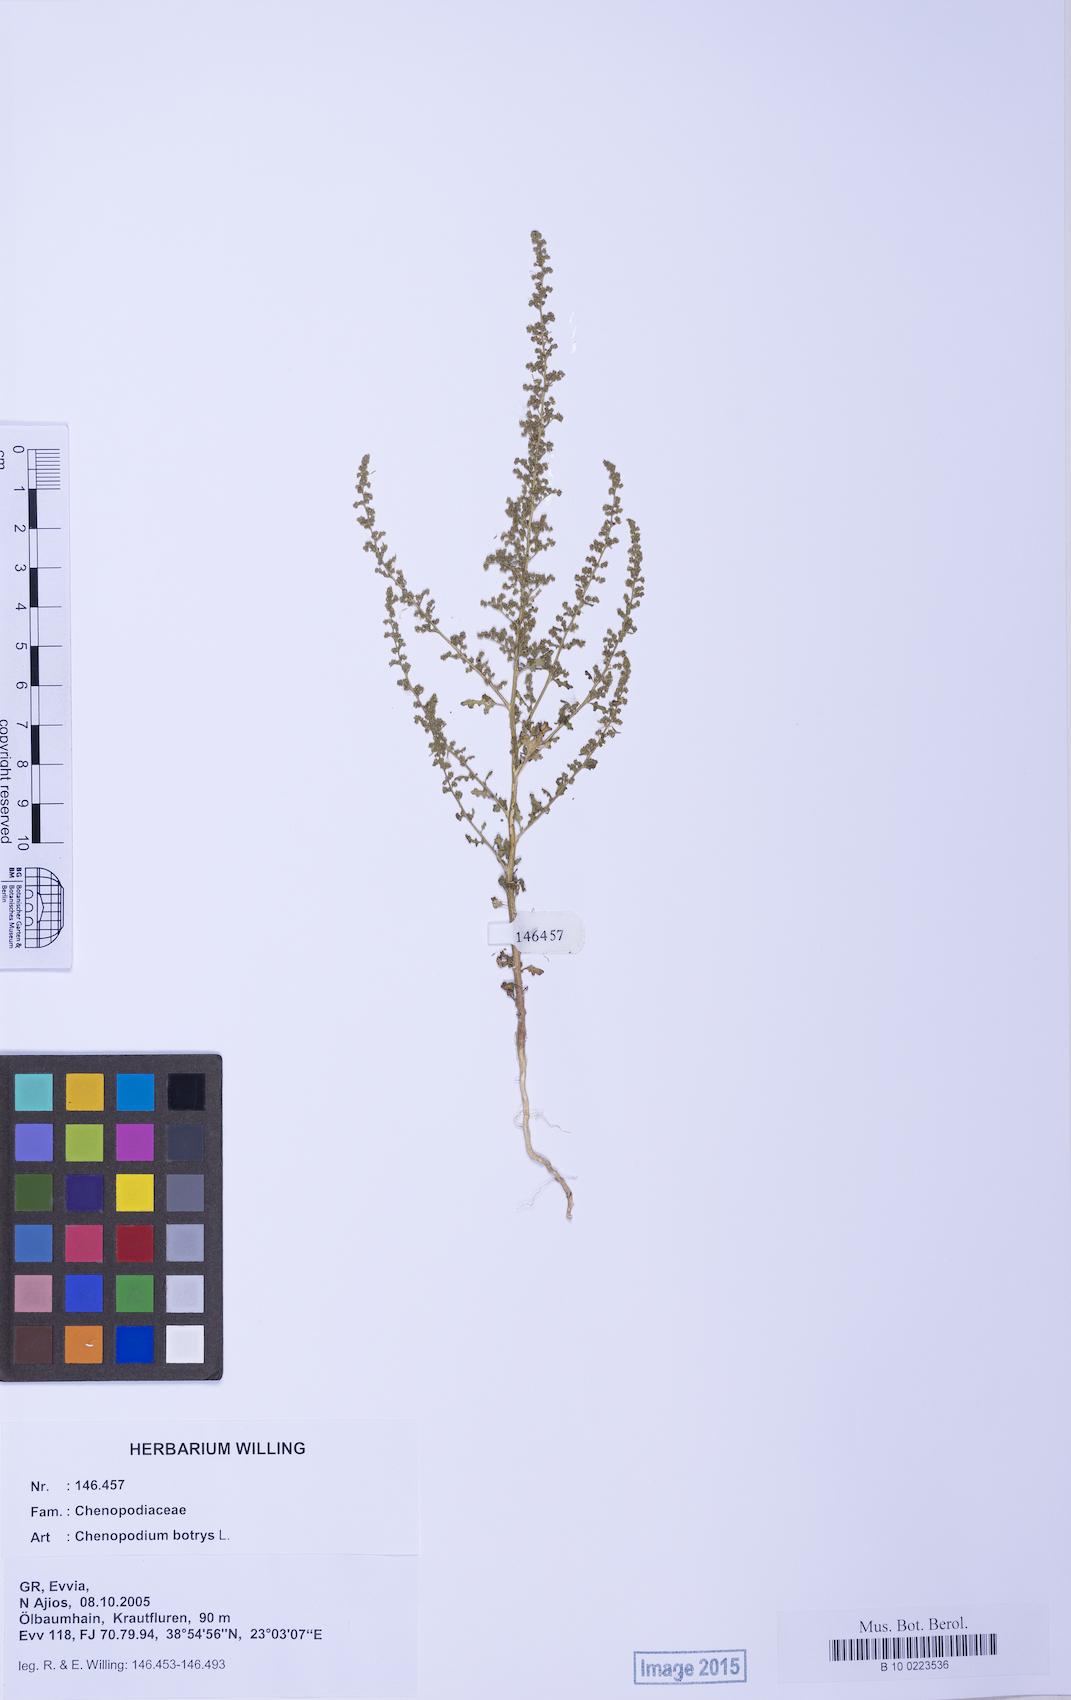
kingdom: Plantae
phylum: Tracheophyta
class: Magnoliopsida
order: Caryophyllales
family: Amaranthaceae
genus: Dysphania
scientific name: Dysphania botrys
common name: Feather-geranium
